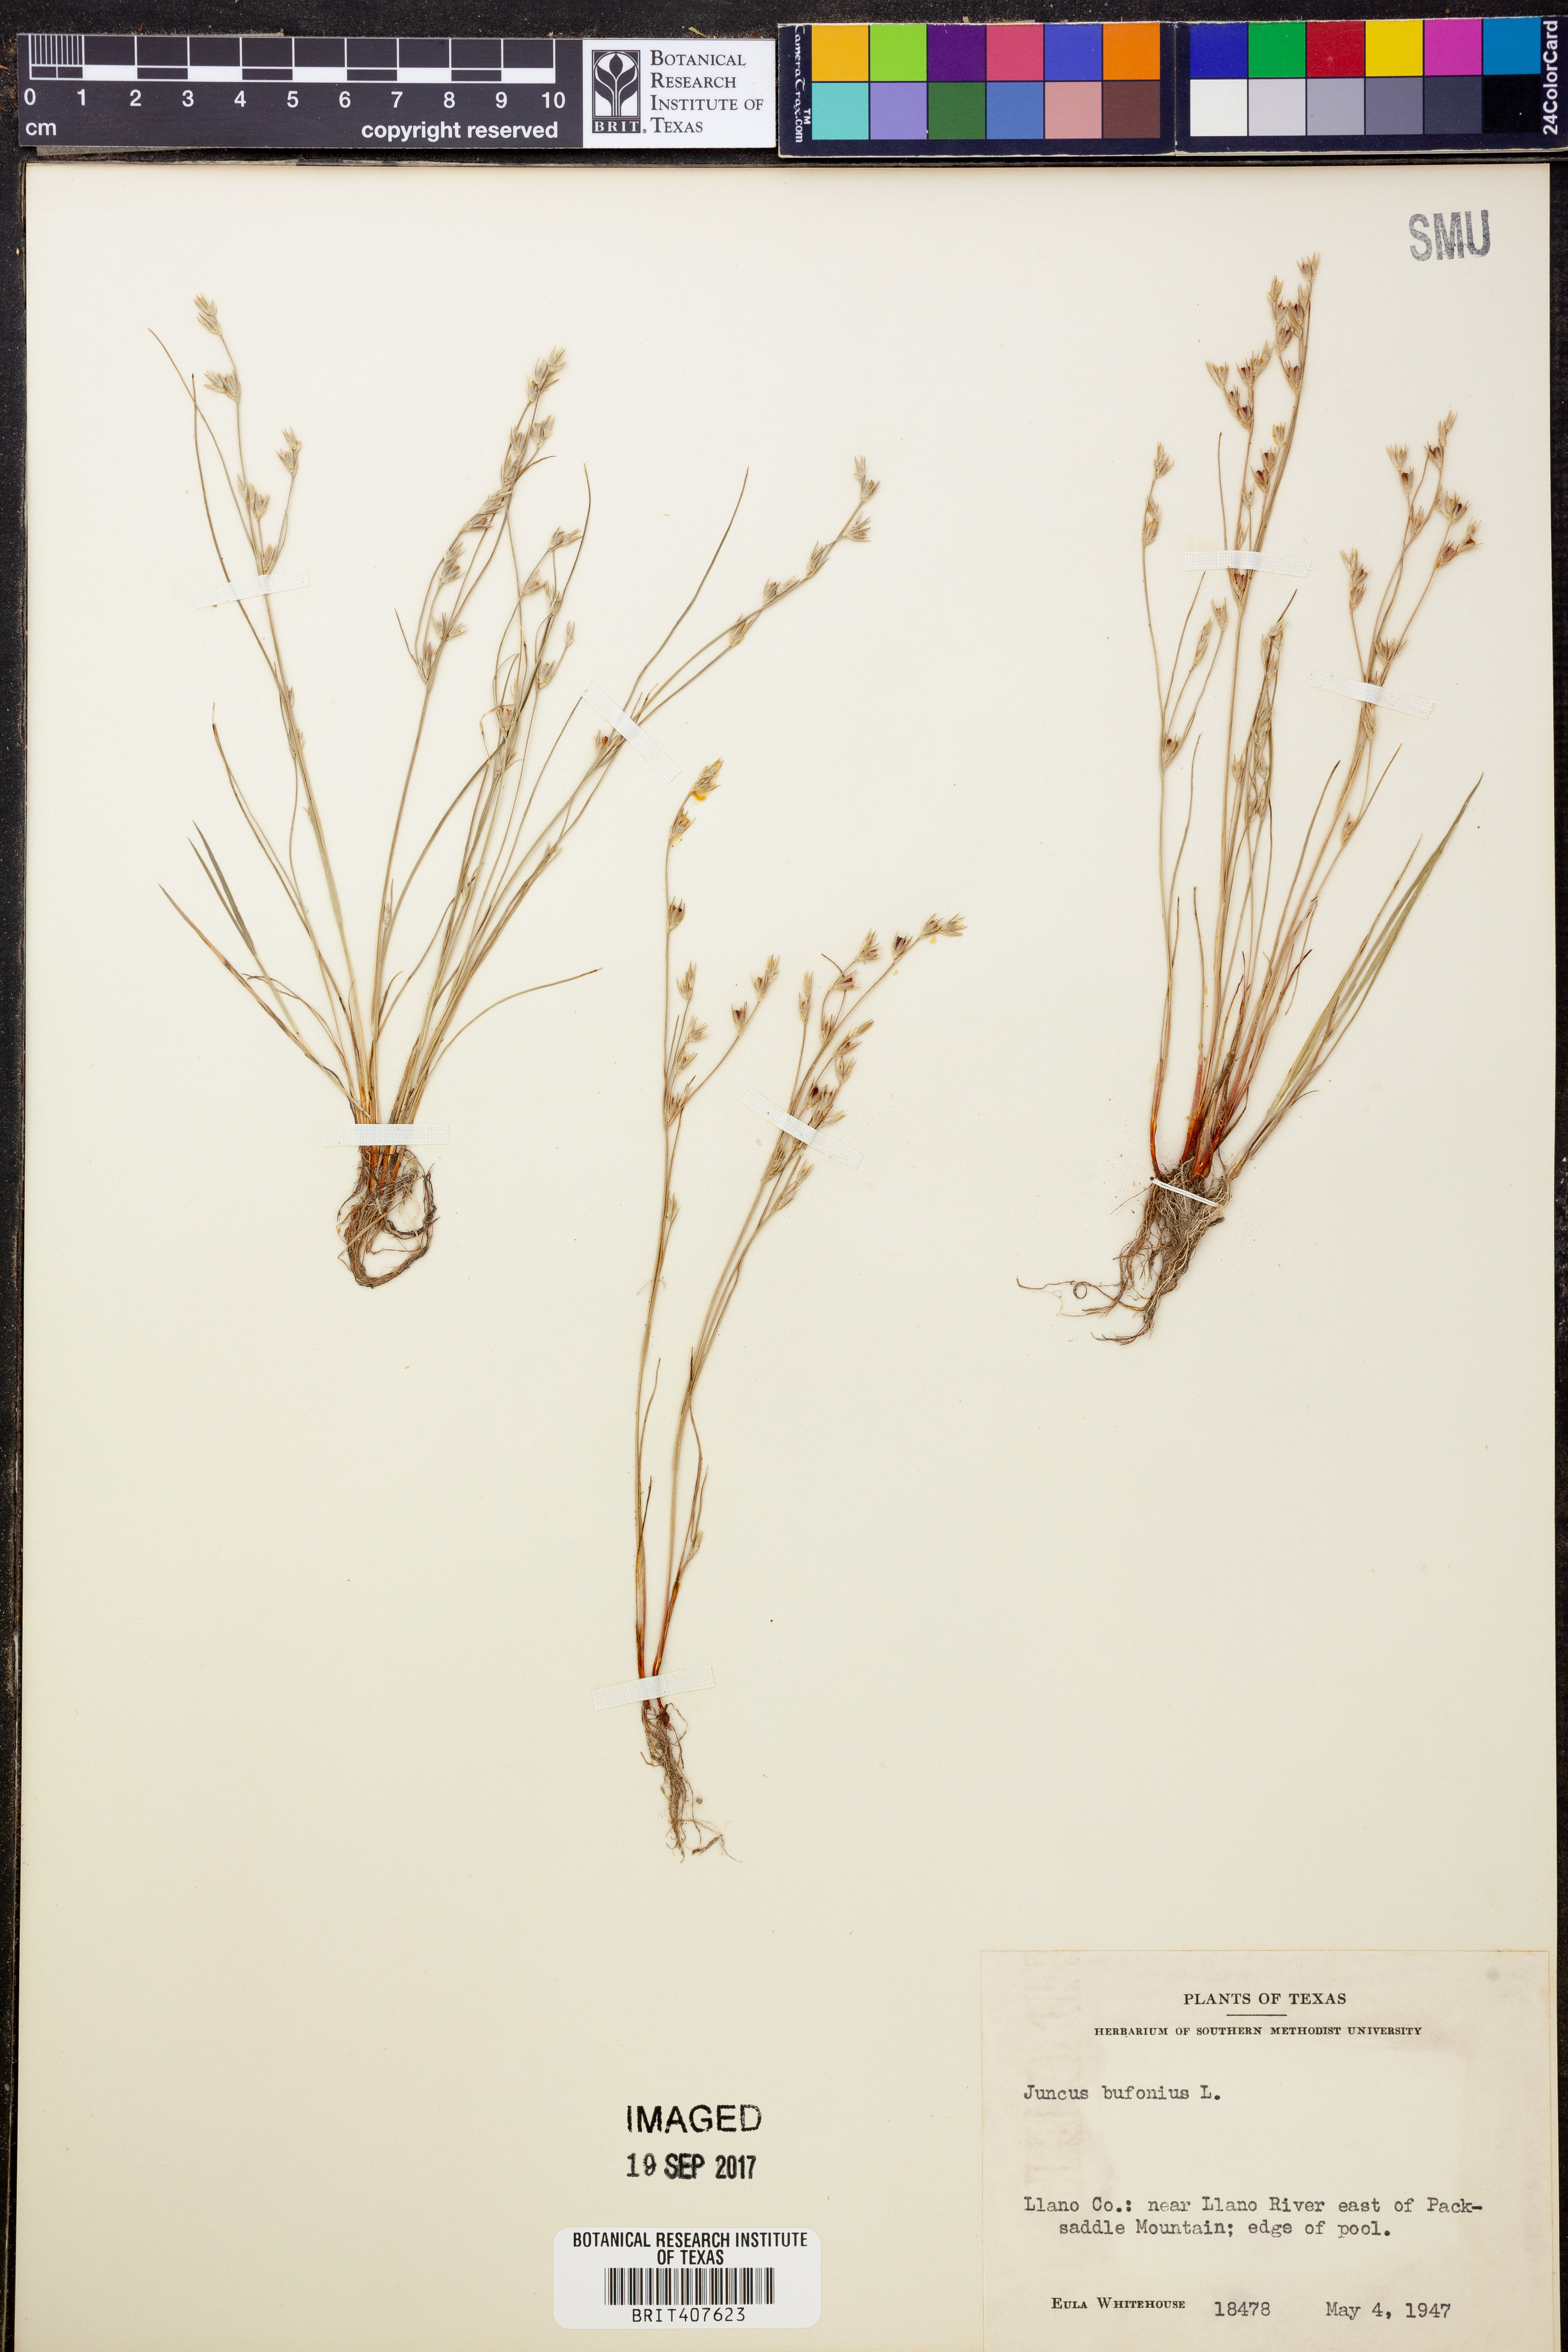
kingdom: Plantae
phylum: Tracheophyta
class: Liliopsida
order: Poales
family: Juncaceae
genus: Juncus
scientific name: Juncus bufonius
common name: Toad rush
